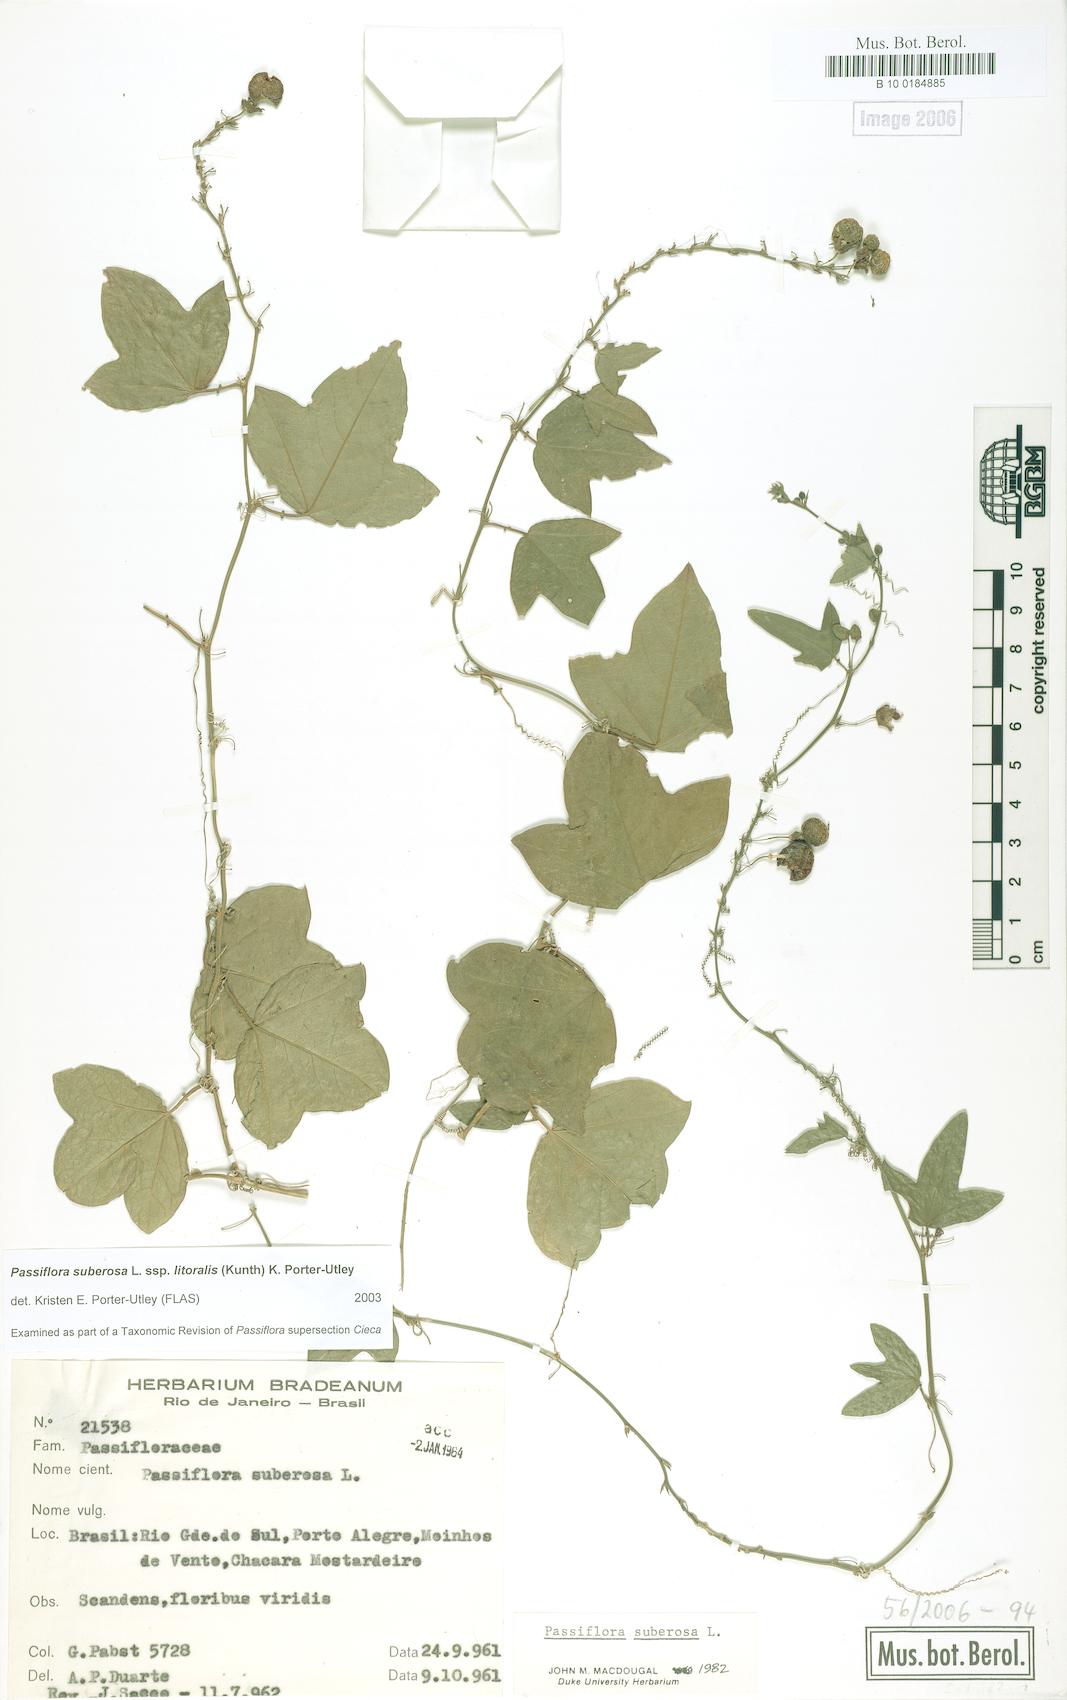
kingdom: Plantae
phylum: Tracheophyta
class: Magnoliopsida
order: Malpighiales
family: Passifloraceae
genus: Passiflora
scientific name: Passiflora suberosa
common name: Wild passionfruit
